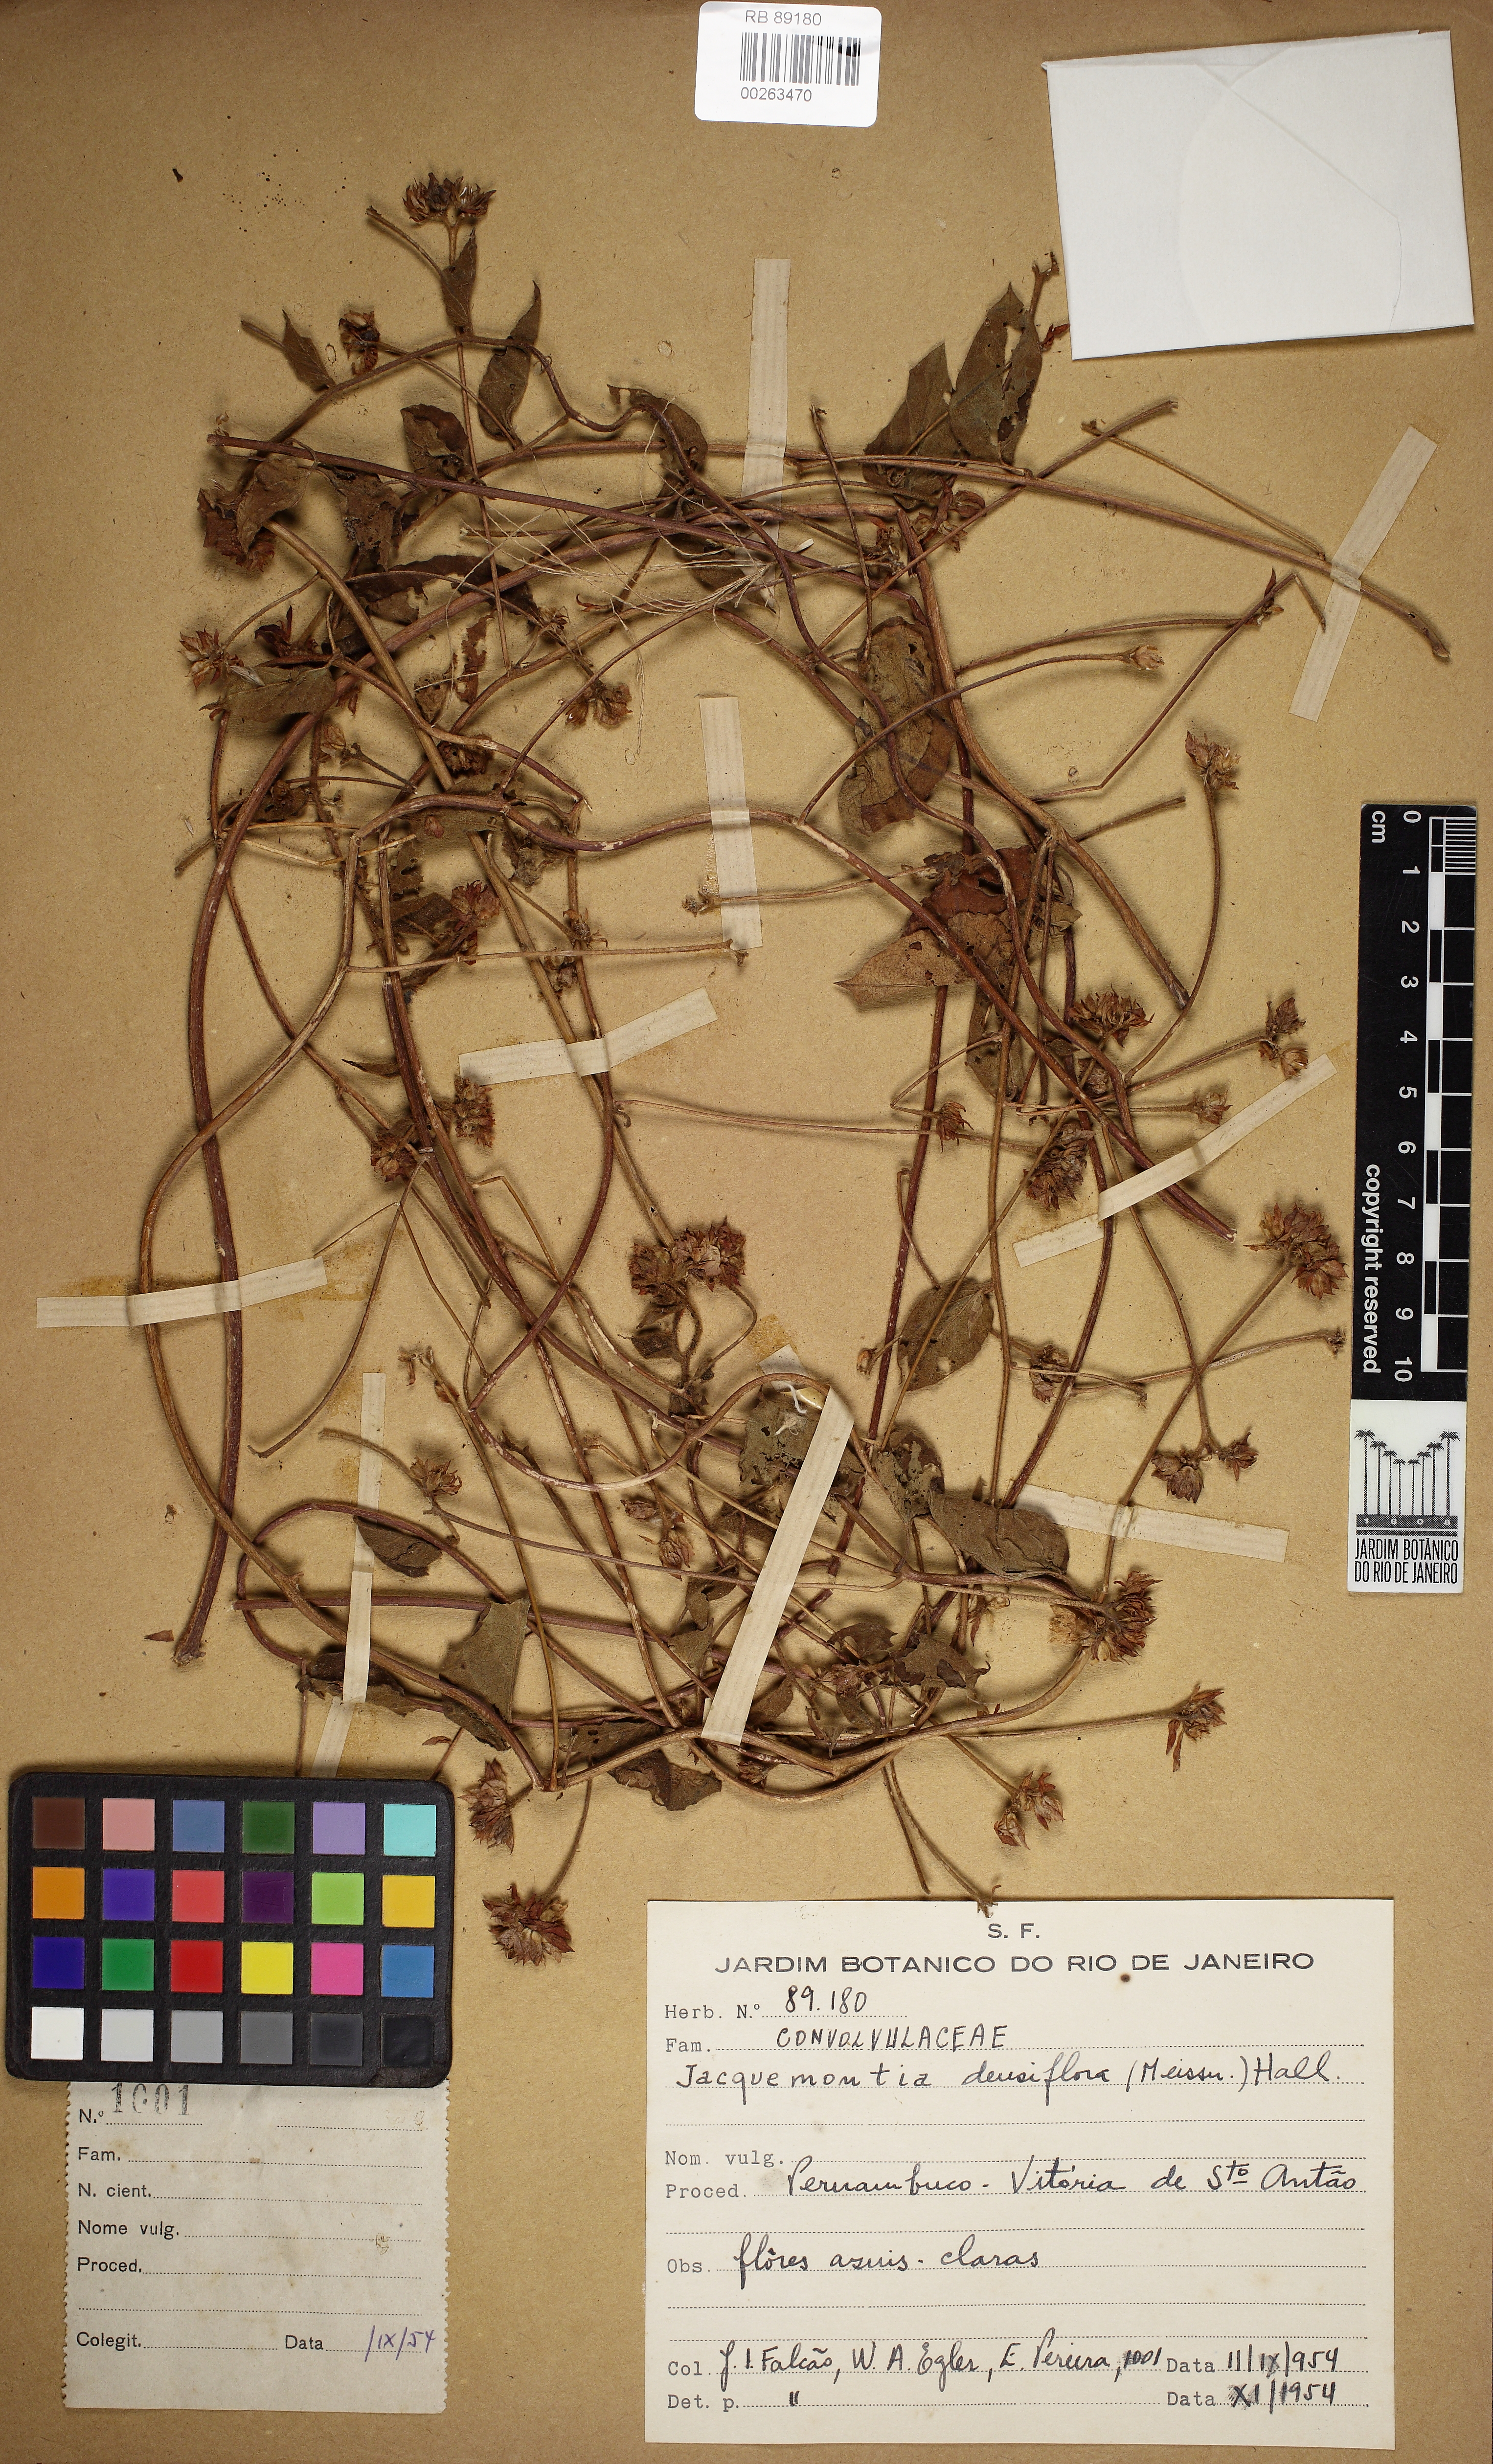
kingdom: Plantae
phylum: Tracheophyta
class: Magnoliopsida
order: Solanales
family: Convolvulaceae
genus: Jacquemontia
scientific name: Jacquemontia densiflora
